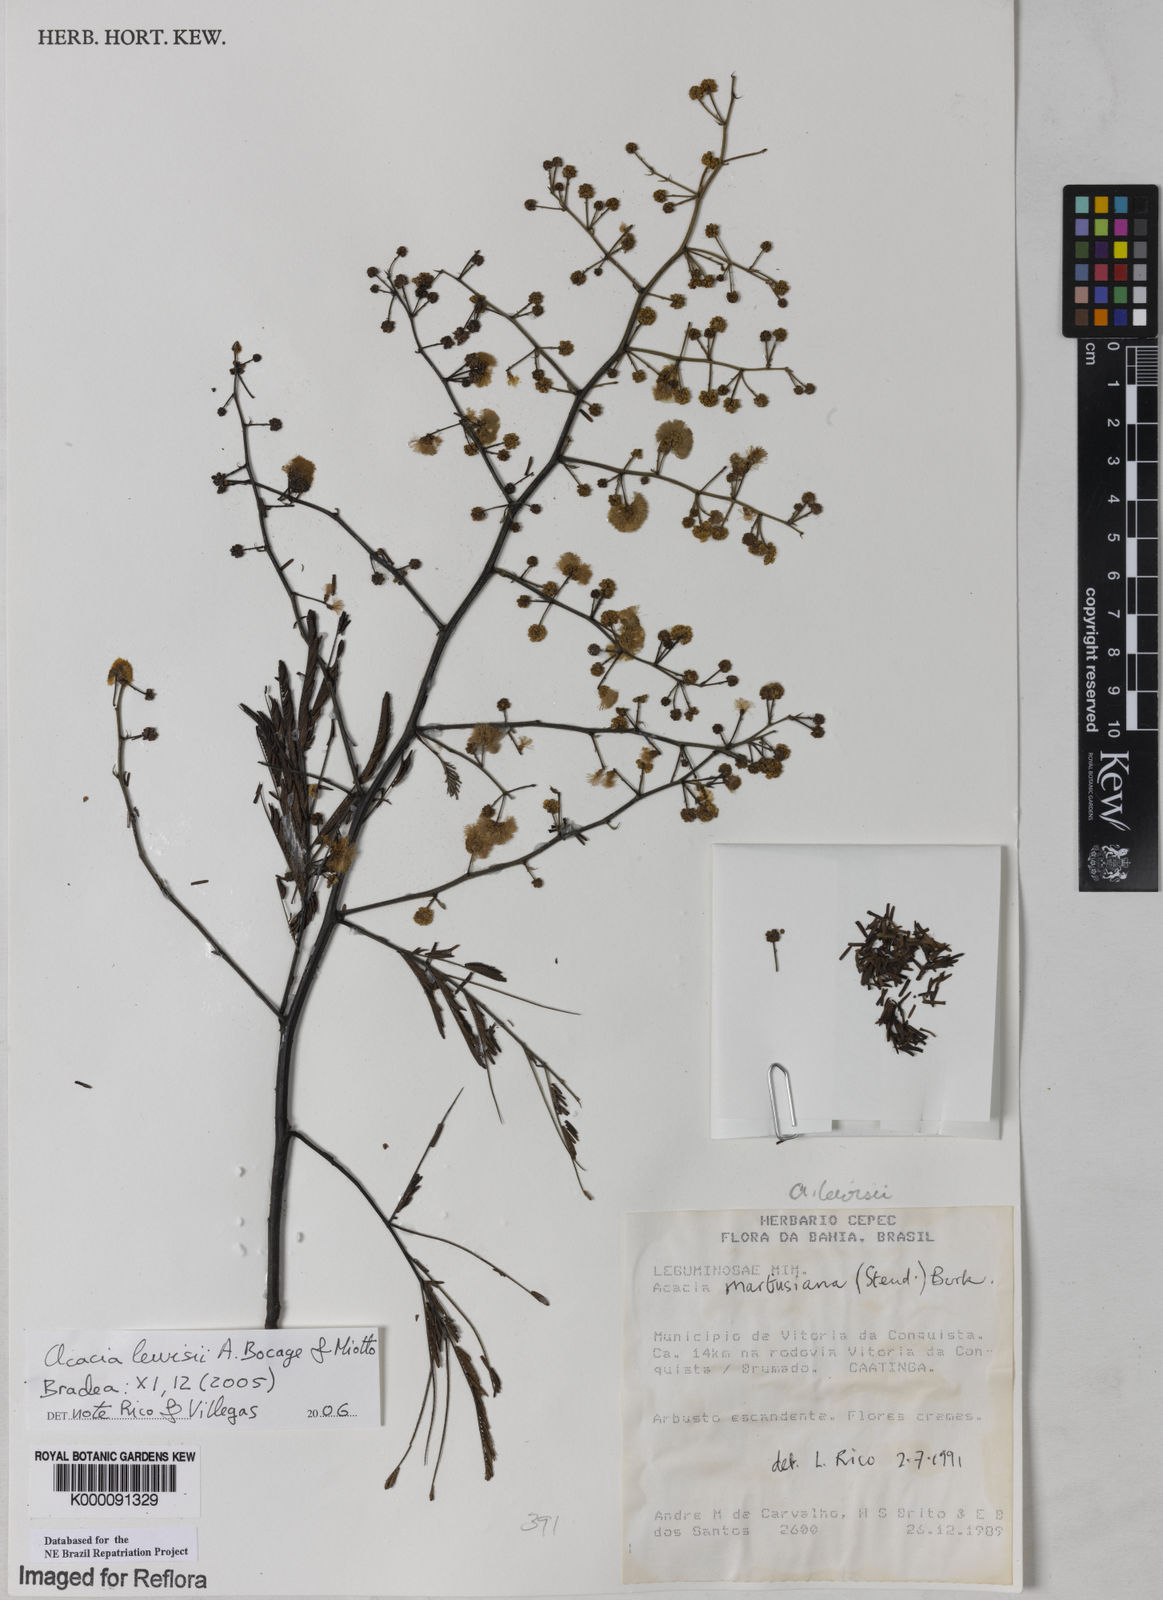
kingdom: Plantae
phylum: Tracheophyta
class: Magnoliopsida
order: Fabales
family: Fabaceae
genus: Senegalia
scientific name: Senegalia fiebrigii
